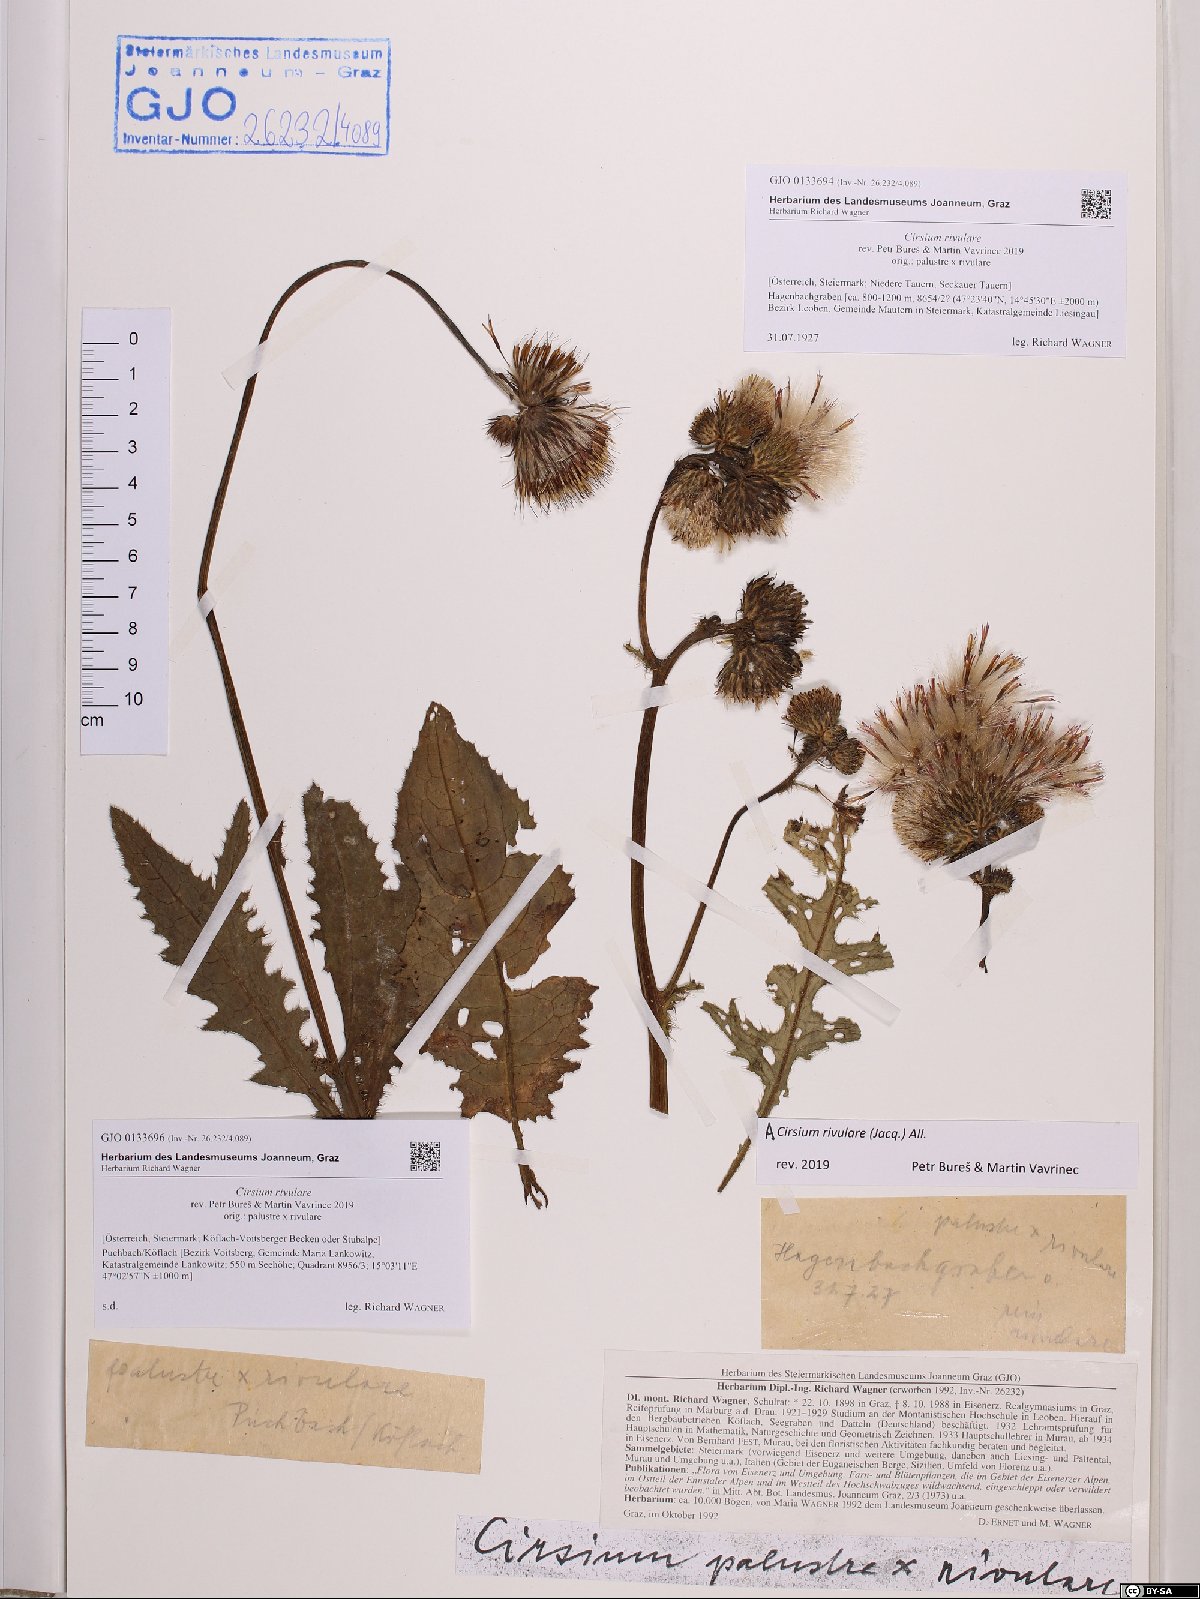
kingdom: Plantae
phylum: Tracheophyta
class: Magnoliopsida
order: Asterales
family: Asteraceae
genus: Cirsium
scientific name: Cirsium rivulare
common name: Brook thistle
